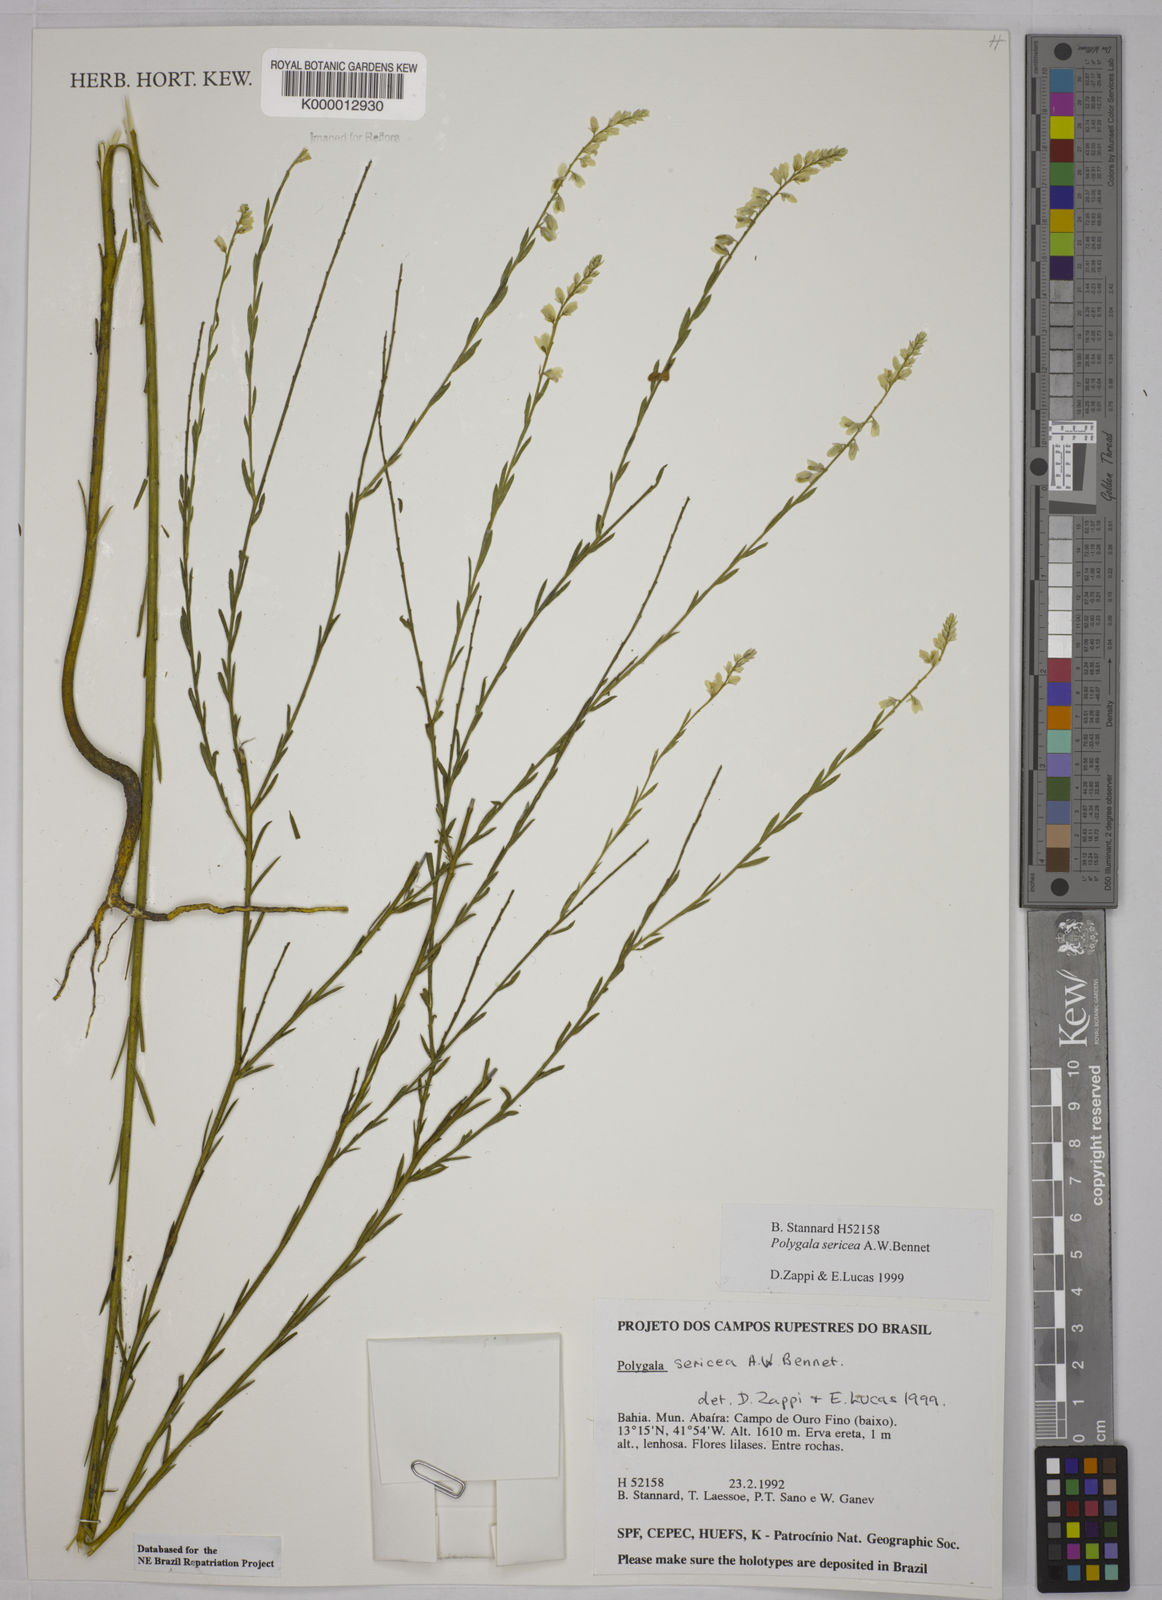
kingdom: Plantae
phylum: Tracheophyta
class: Magnoliopsida
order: Fabales
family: Polygalaceae
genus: Polygala
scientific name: Polygala sericea
